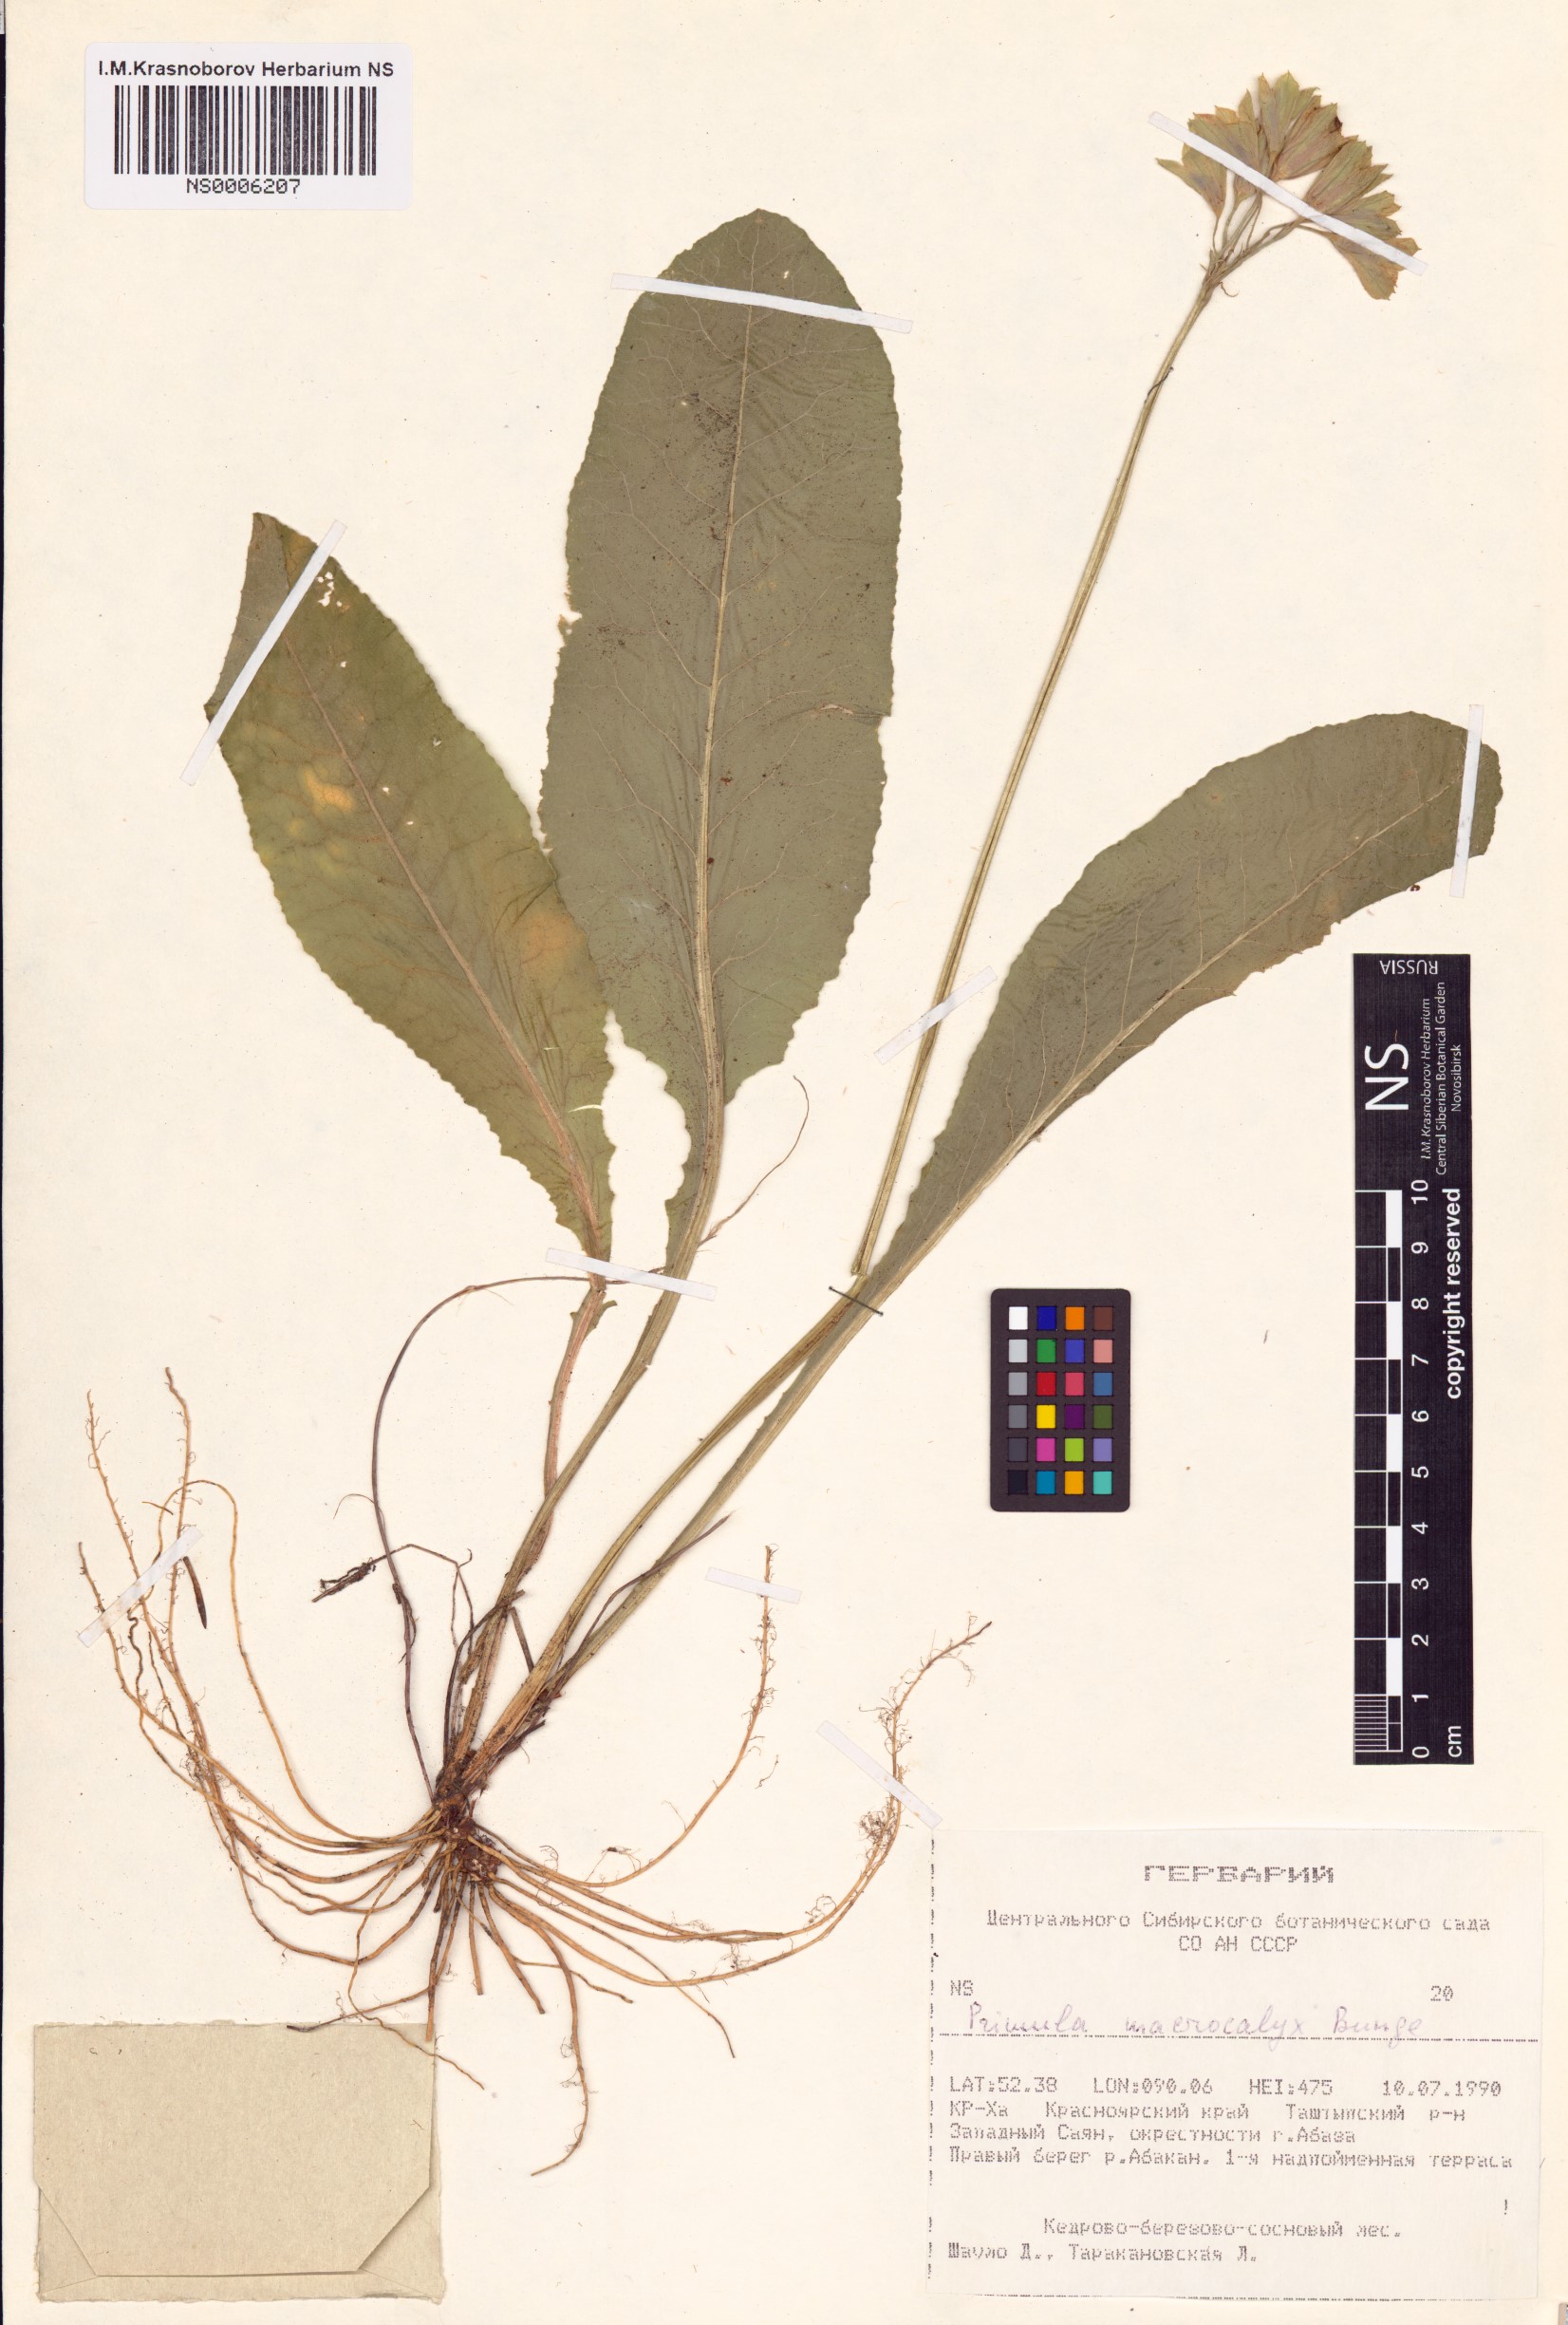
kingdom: Plantae
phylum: Tracheophyta
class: Magnoliopsida
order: Ericales
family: Primulaceae
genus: Primula
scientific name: Primula veris
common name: Cowslip
